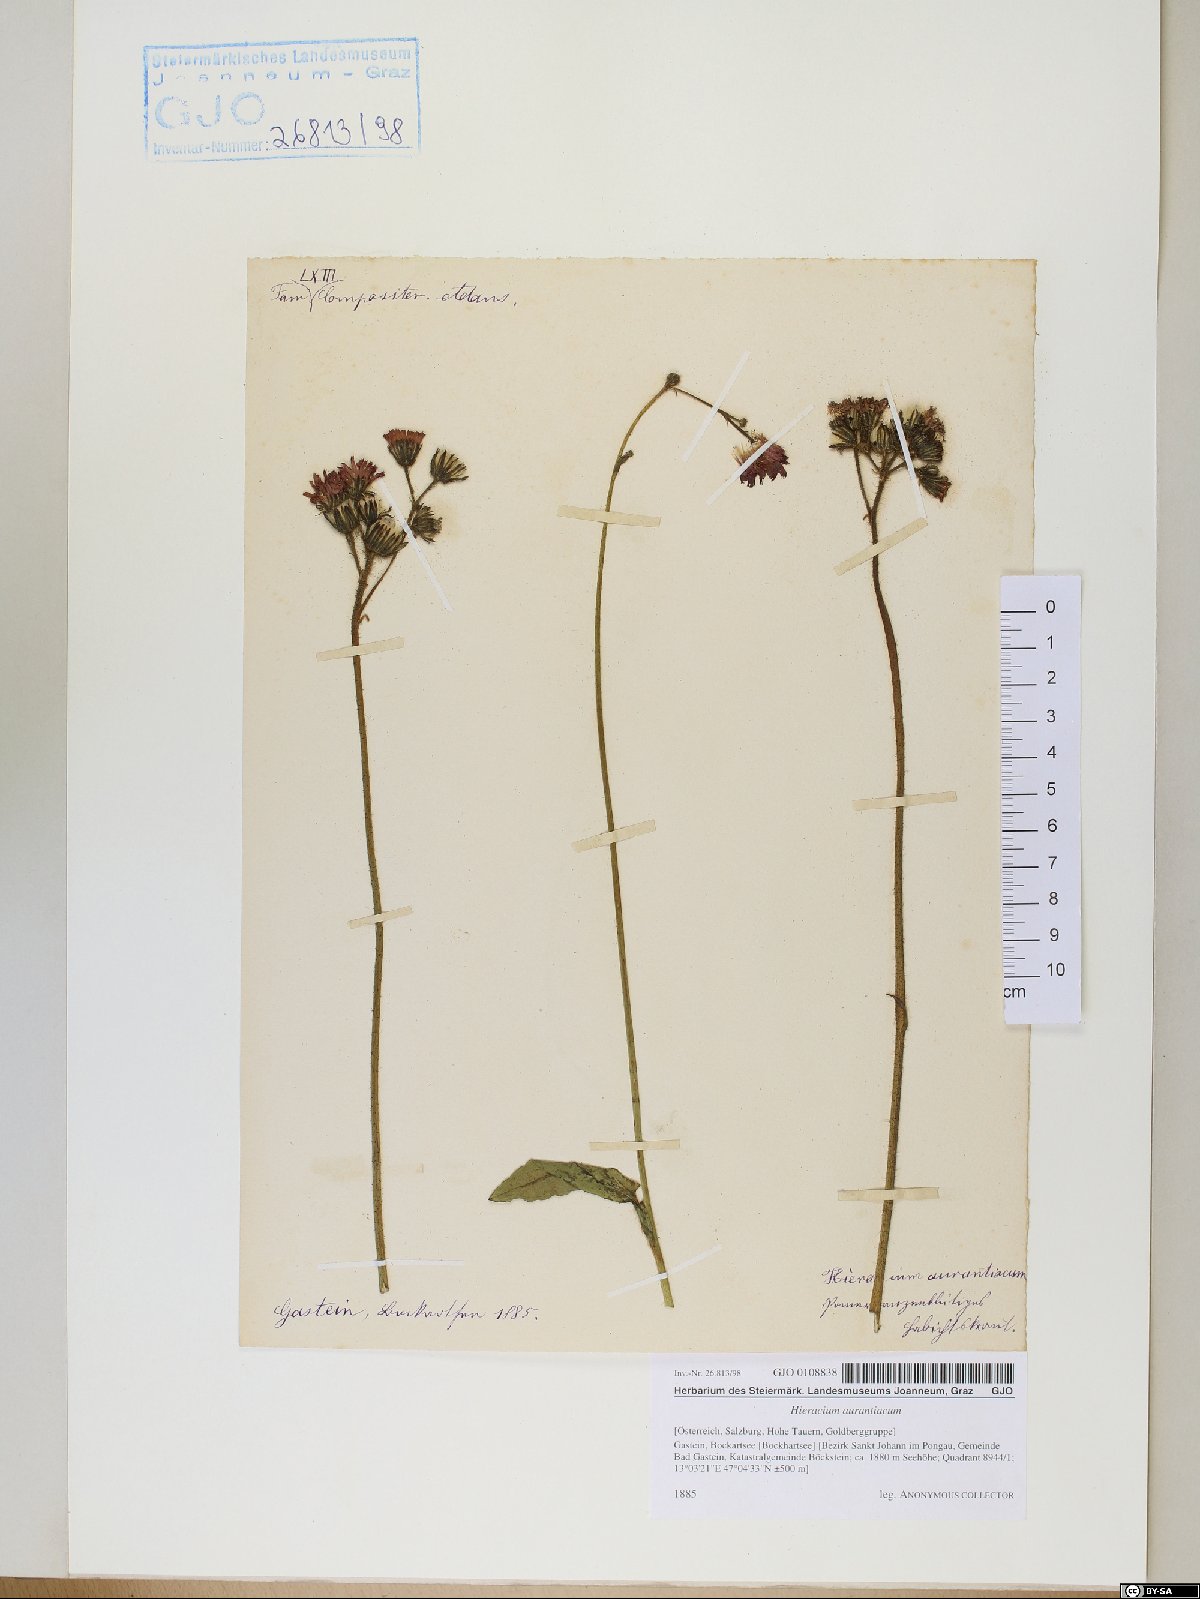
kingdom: Plantae
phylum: Tracheophyta
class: Magnoliopsida
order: Asterales
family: Asteraceae
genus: Pilosella
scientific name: Pilosella aurantiaca
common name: Fox-and-cubs
